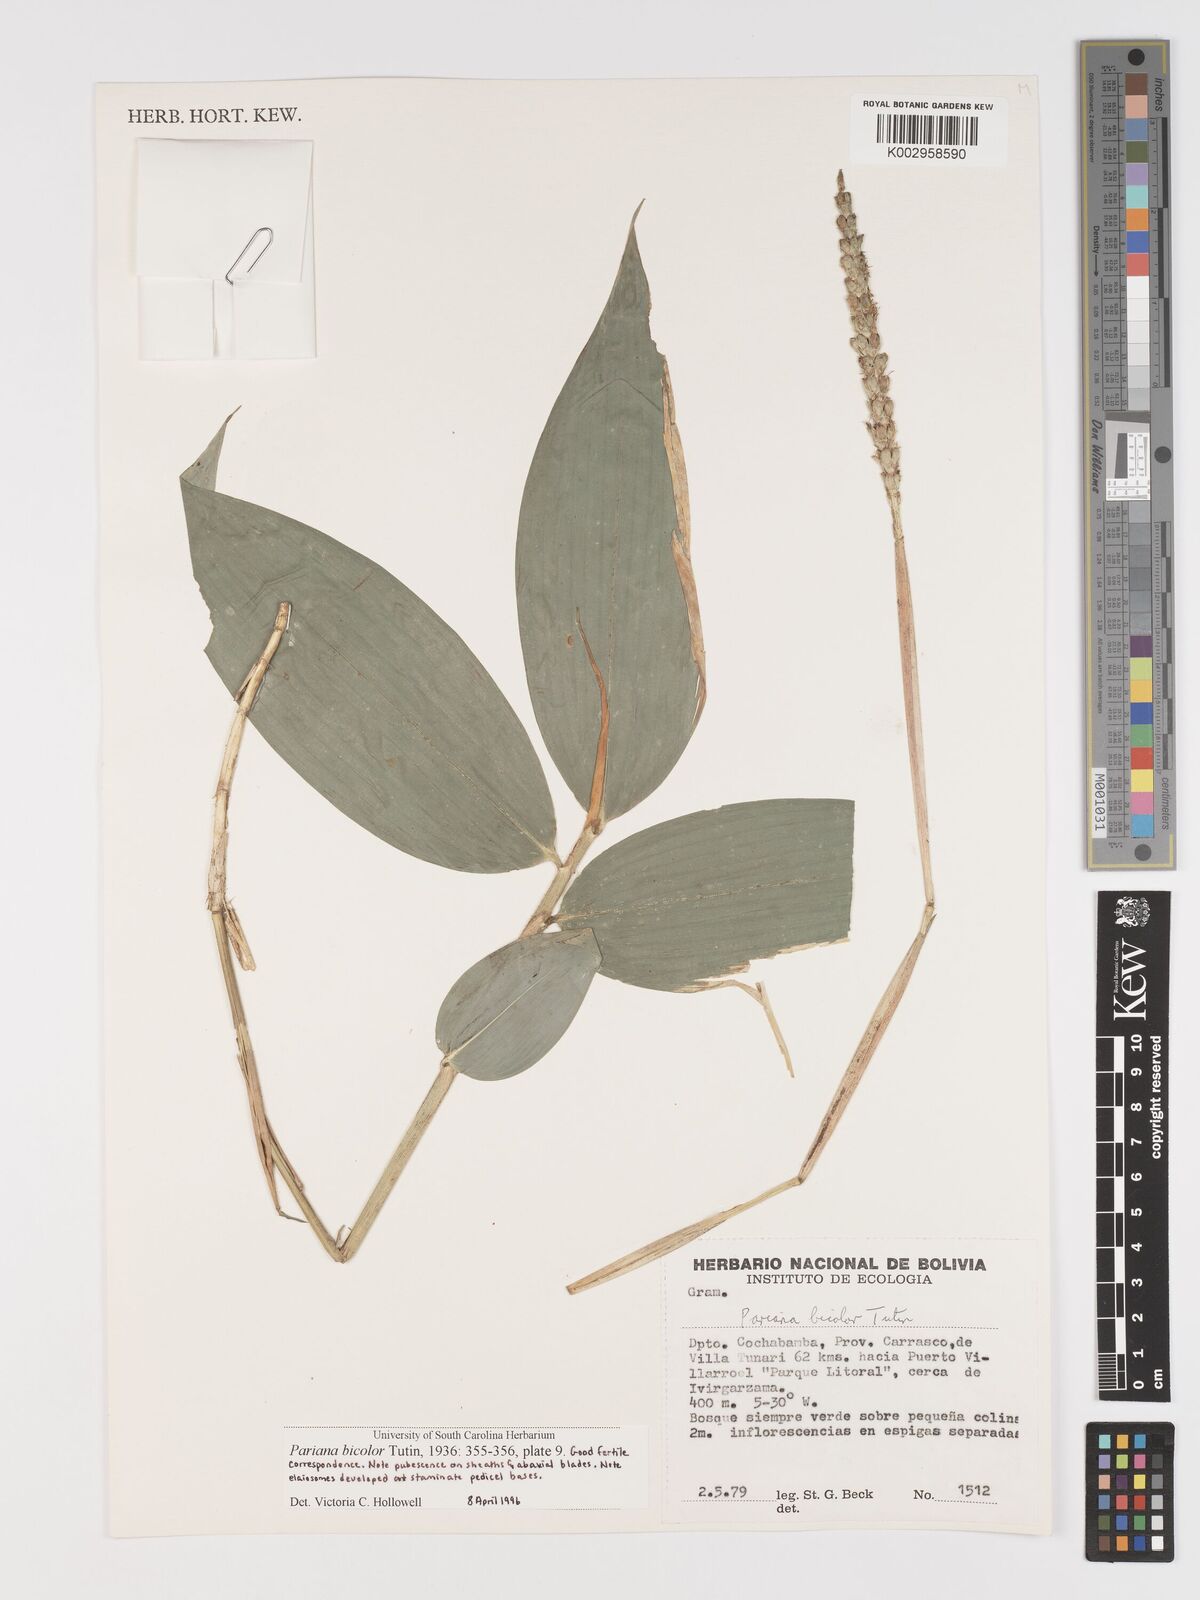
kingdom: Plantae
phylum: Tracheophyta
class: Liliopsida
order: Poales
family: Poaceae
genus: Pariana
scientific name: Pariana bicolor
